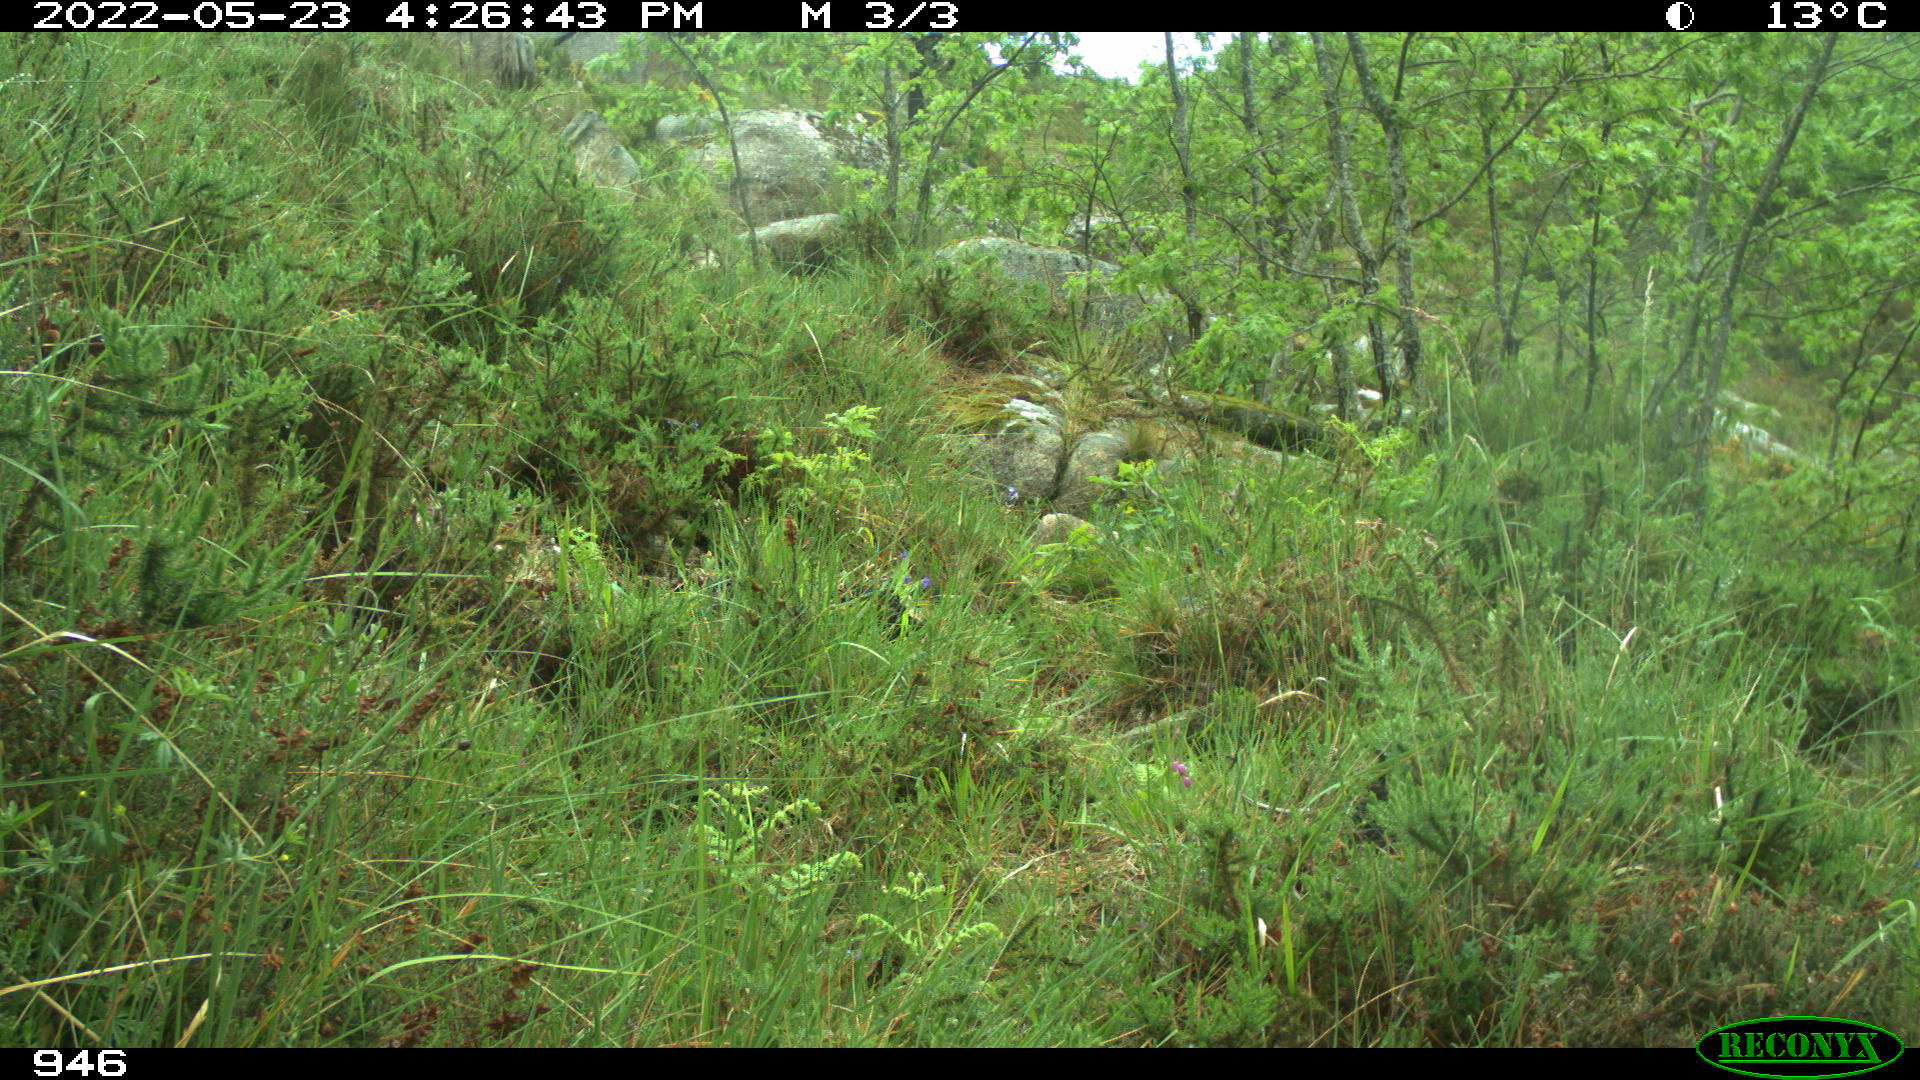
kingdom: Animalia
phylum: Chordata
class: Mammalia
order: Perissodactyla
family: Equidae
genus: Equus
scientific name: Equus caballus
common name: Horse
